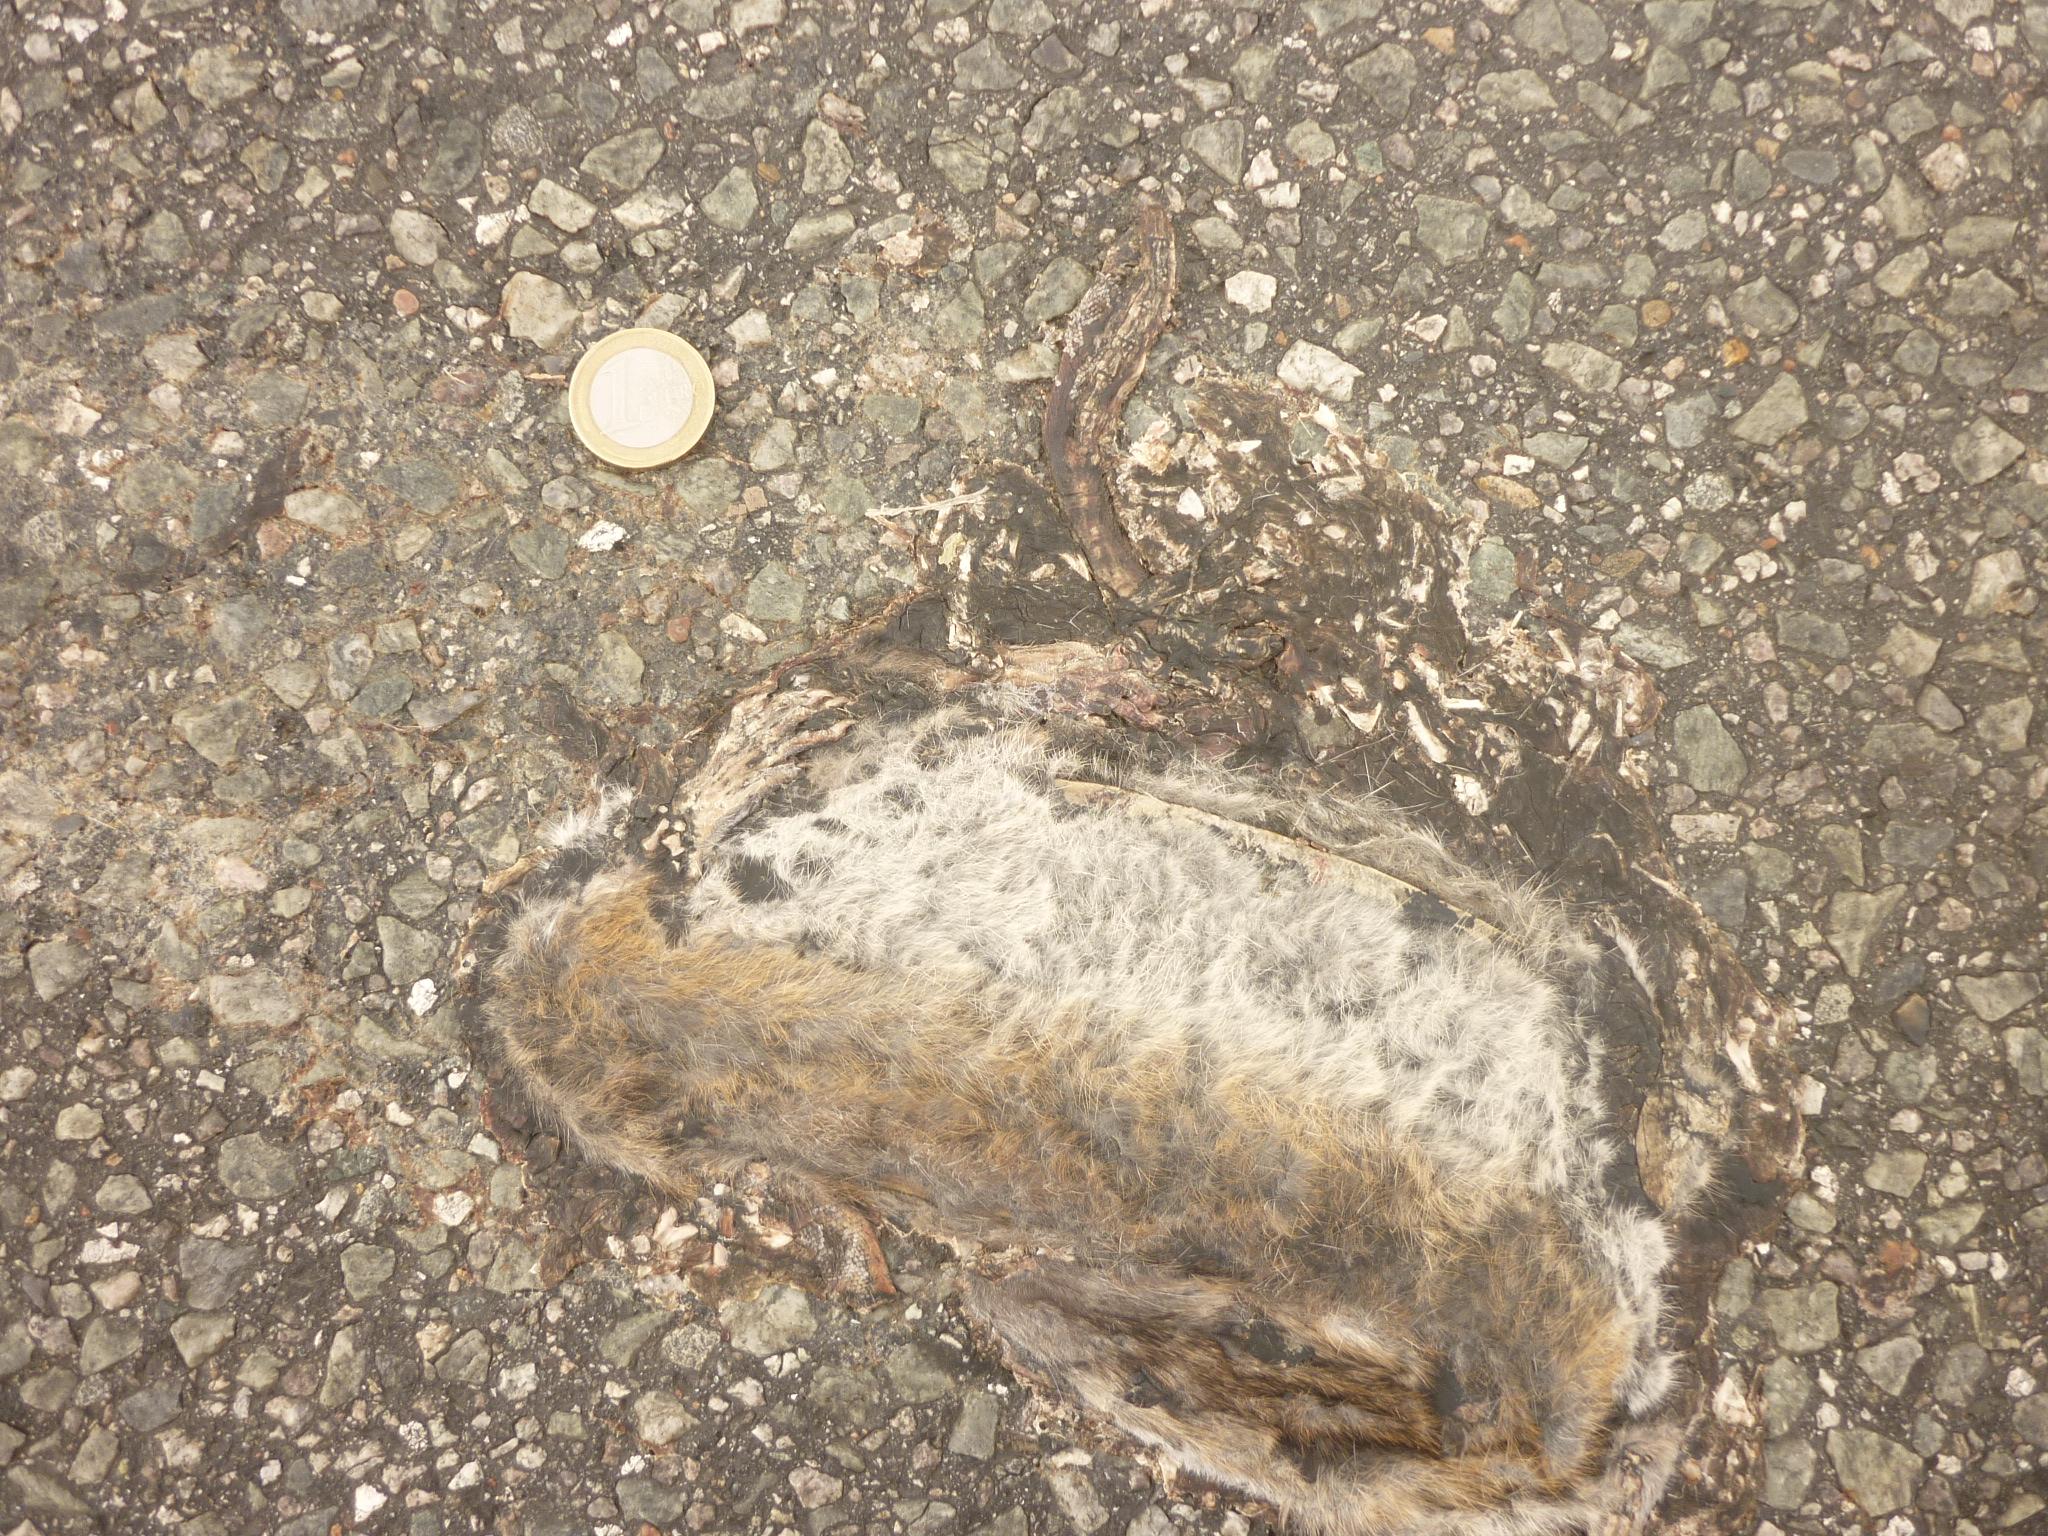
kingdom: Animalia
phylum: Chordata
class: Mammalia
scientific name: Mammalia
